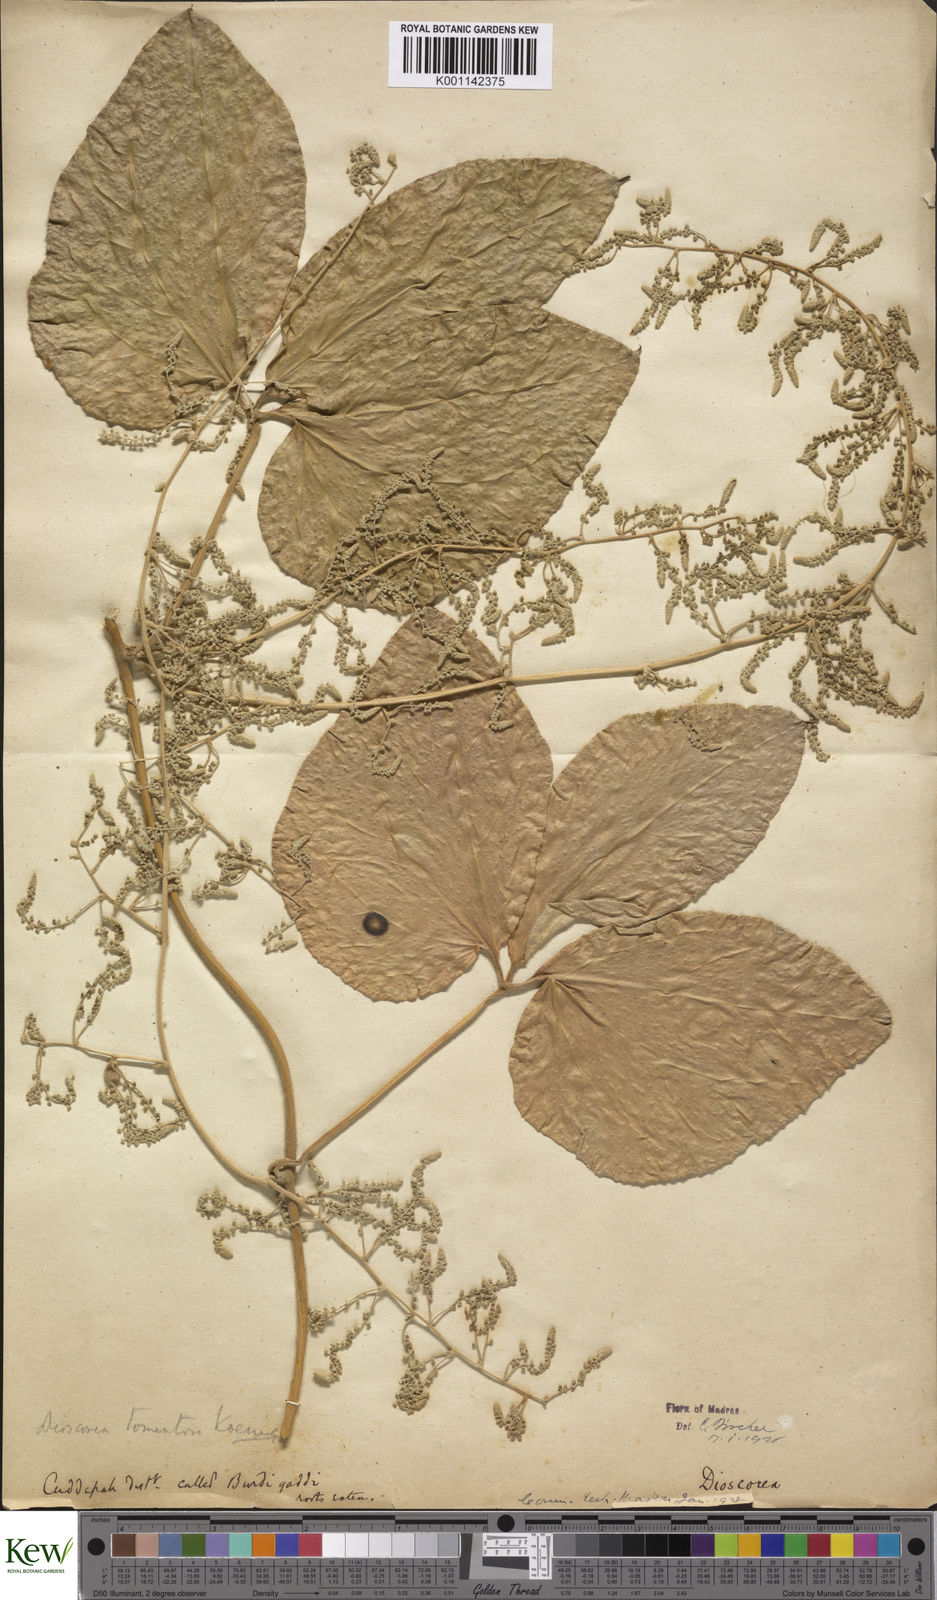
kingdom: Plantae
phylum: Tracheophyta
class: Liliopsida
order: Dioscoreales
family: Dioscoreaceae
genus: Dioscorea
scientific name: Dioscorea
